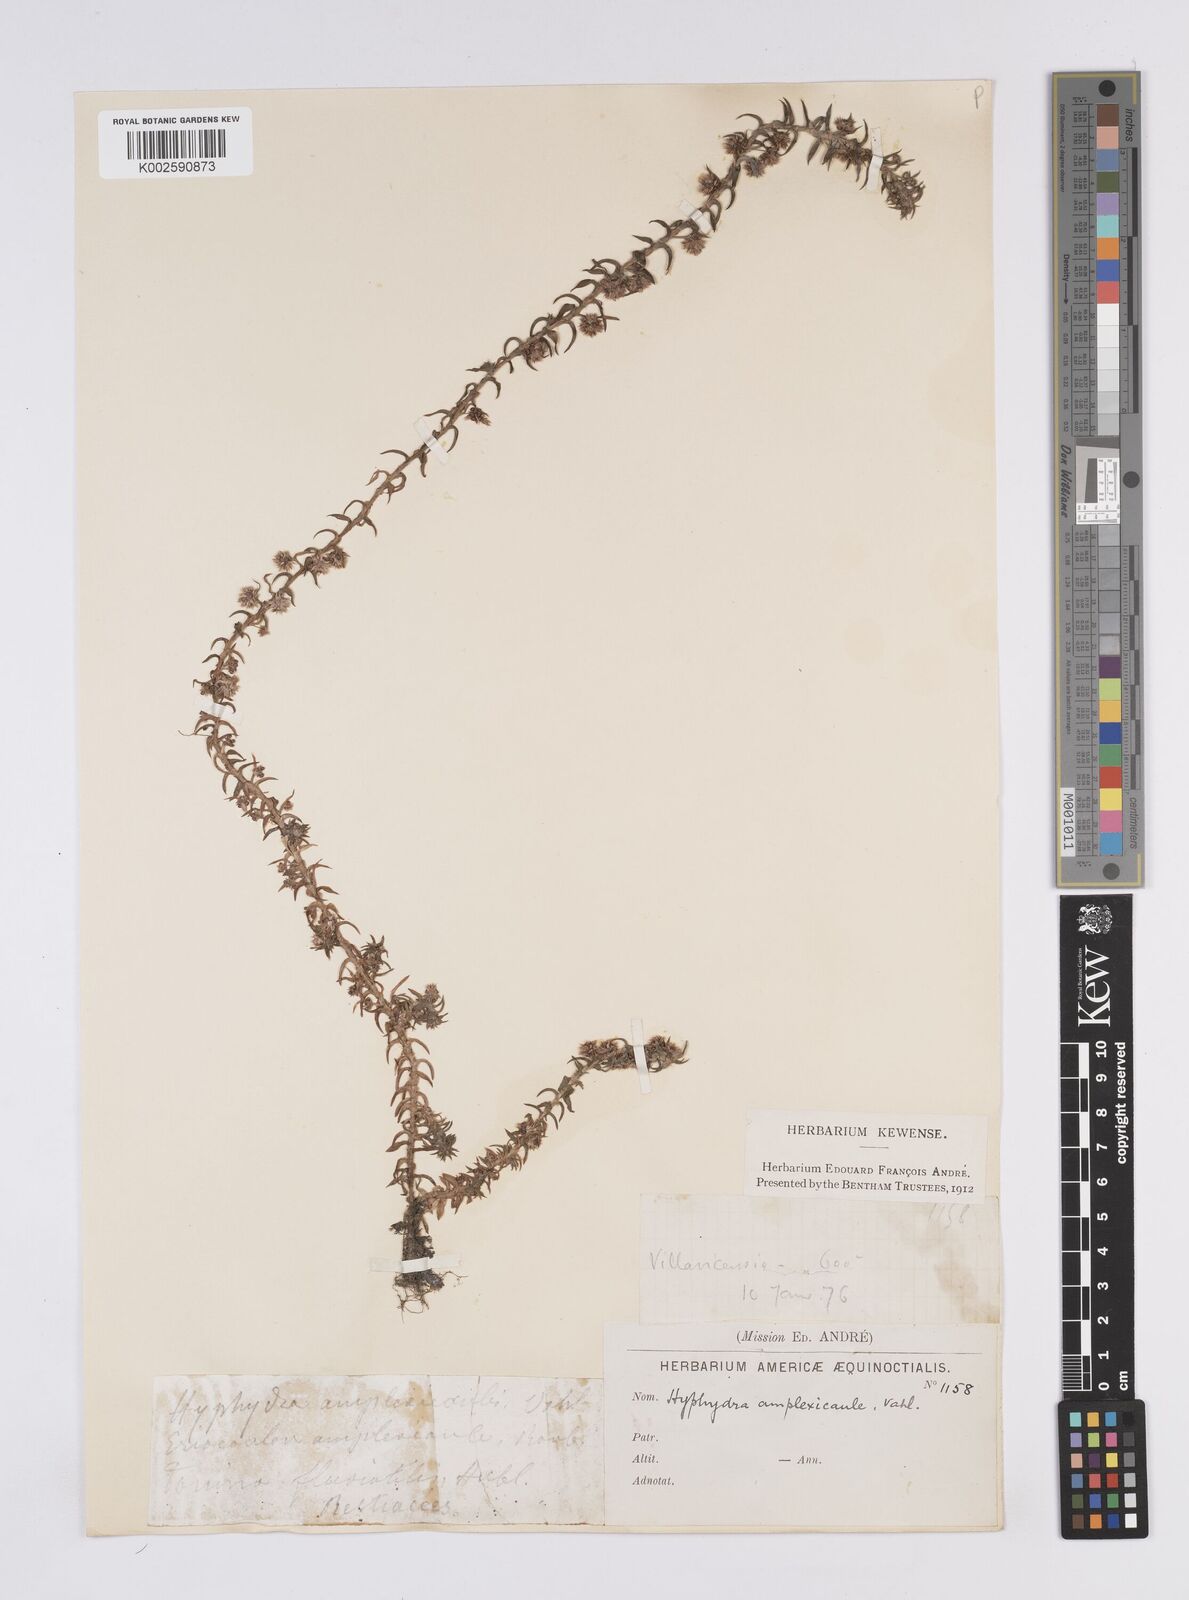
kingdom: Plantae
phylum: Tracheophyta
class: Liliopsida
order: Poales
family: Eriocaulaceae
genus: Paepalanthus
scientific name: Paepalanthus fluviatilis
